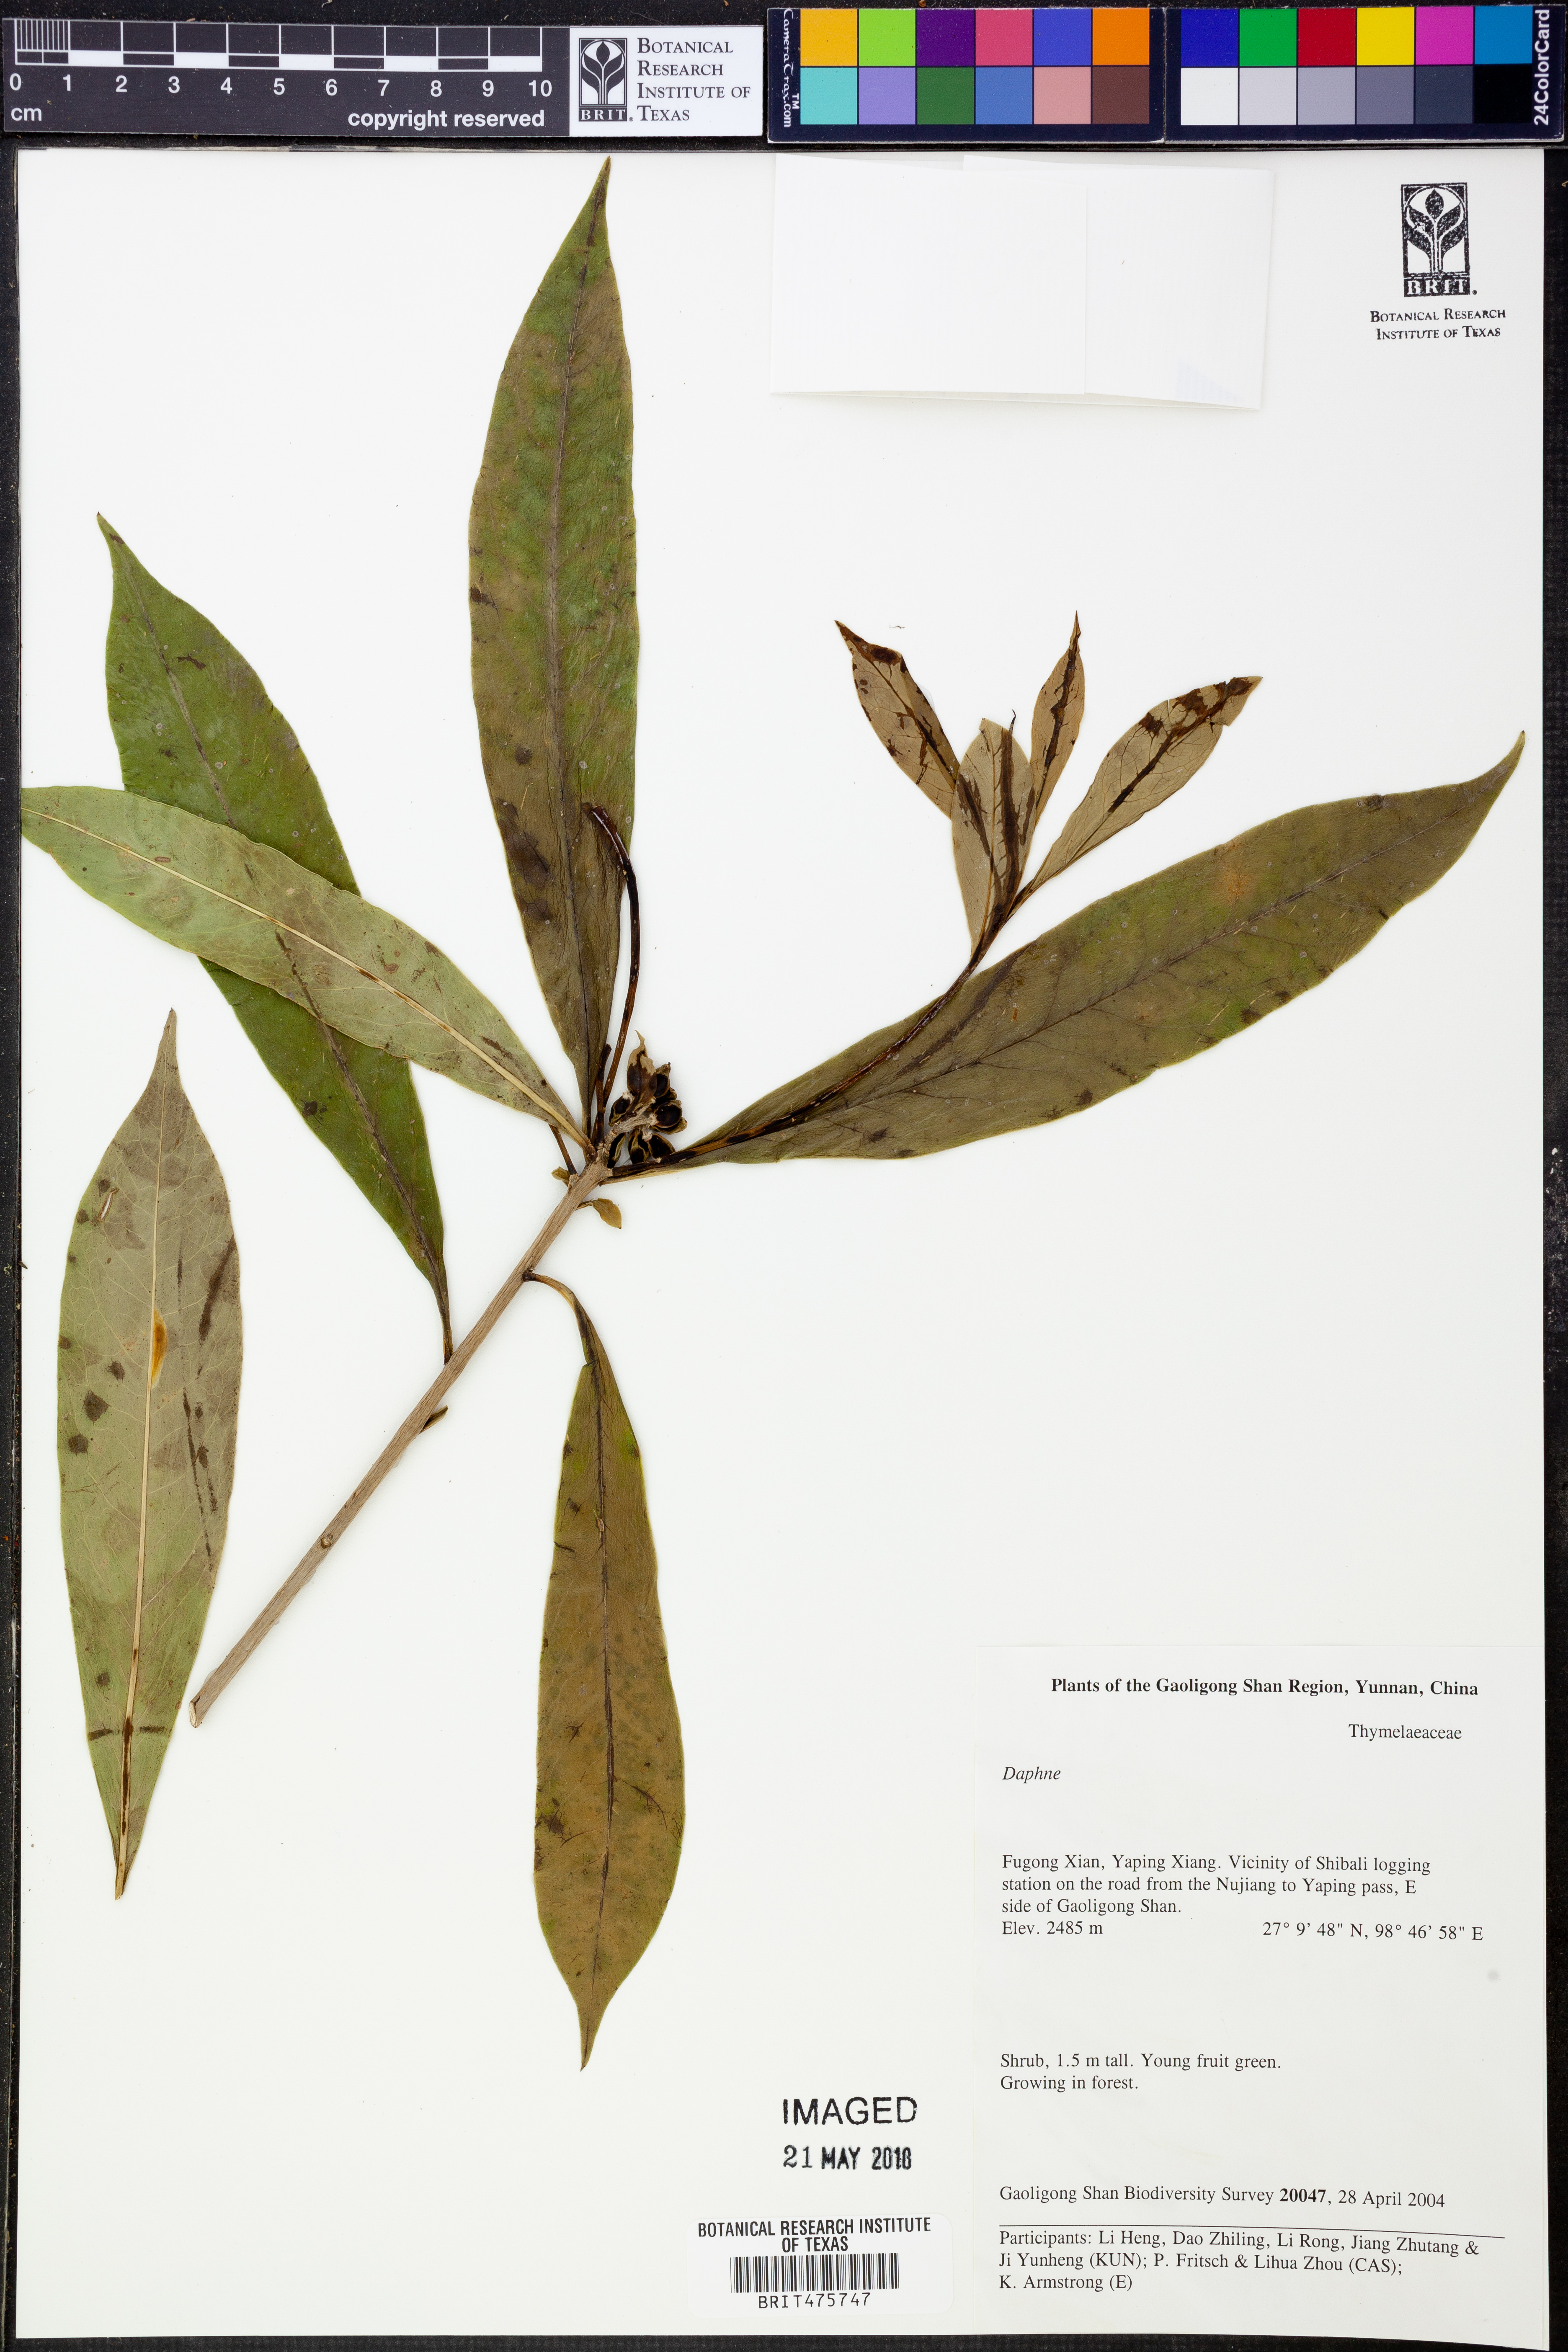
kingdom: Plantae
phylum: Tracheophyta
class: Magnoliopsida
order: Malvales
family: Thymelaeaceae
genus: Daphne
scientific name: Daphne
